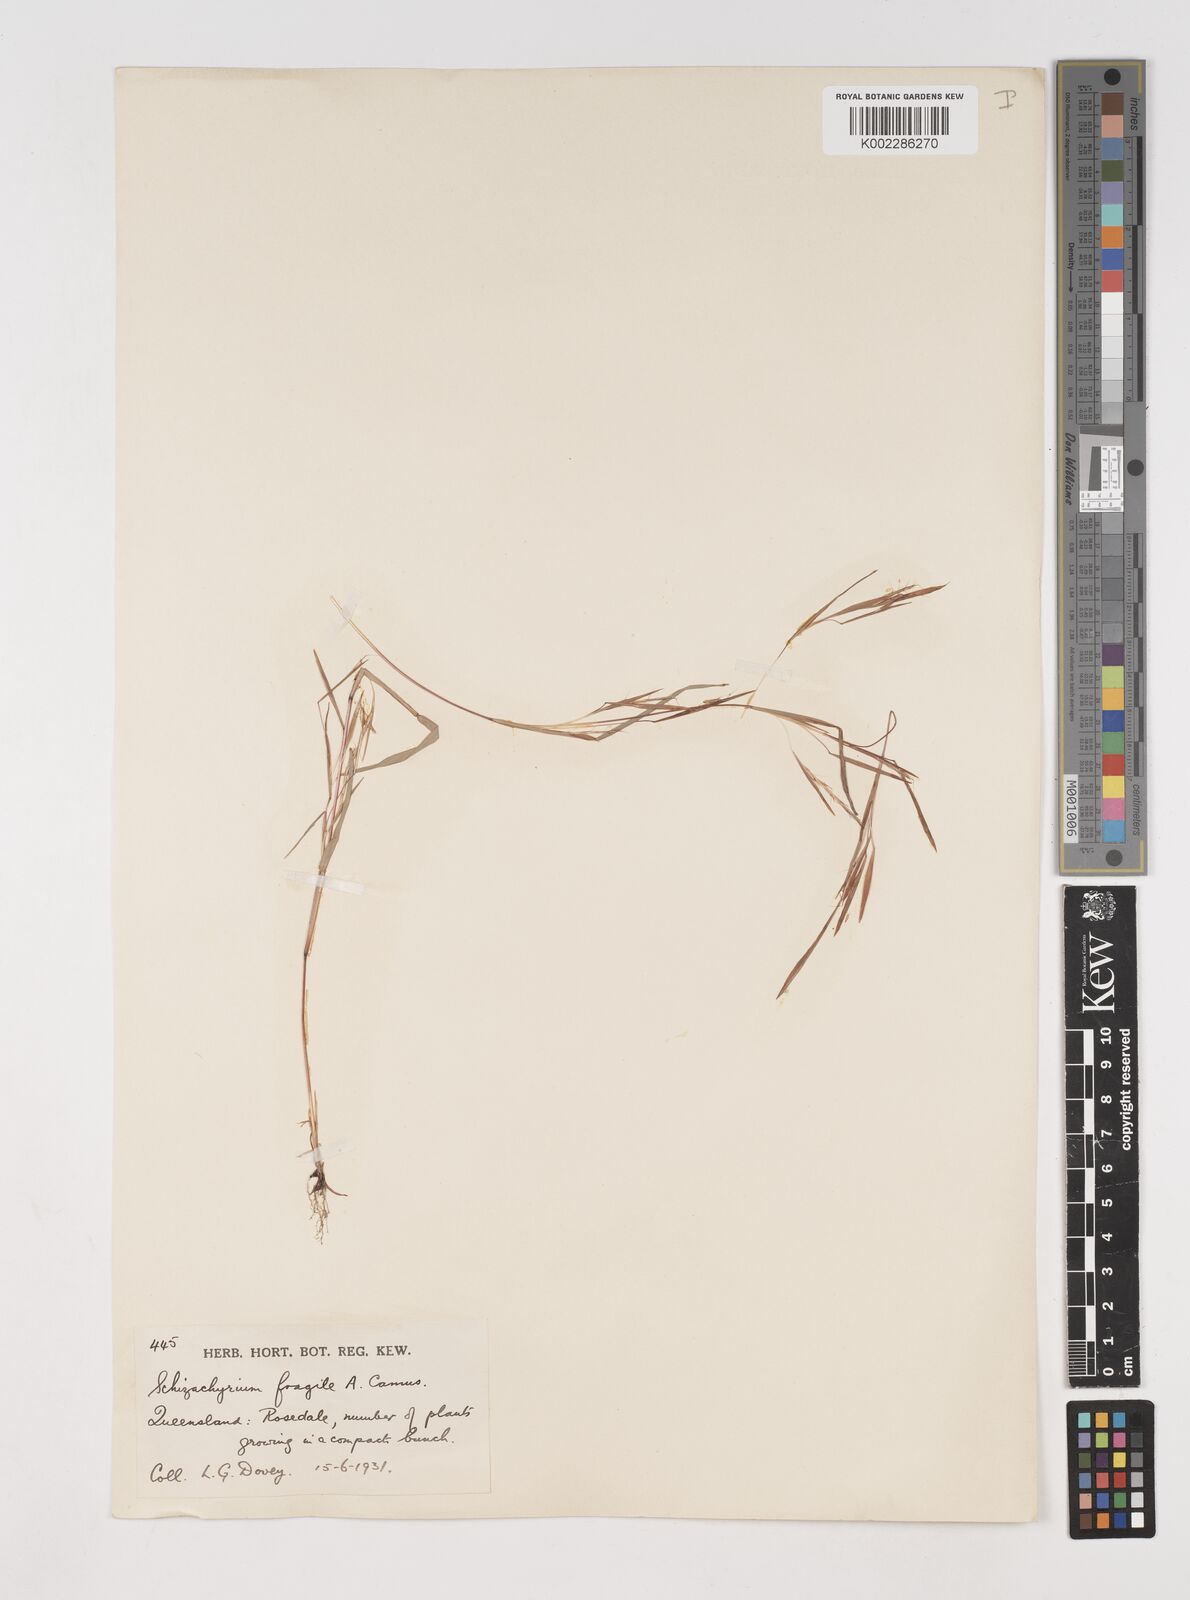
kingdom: Plantae
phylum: Tracheophyta
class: Liliopsida
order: Poales
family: Poaceae
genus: Schizachyrium
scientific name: Schizachyrium pseudeulalia
